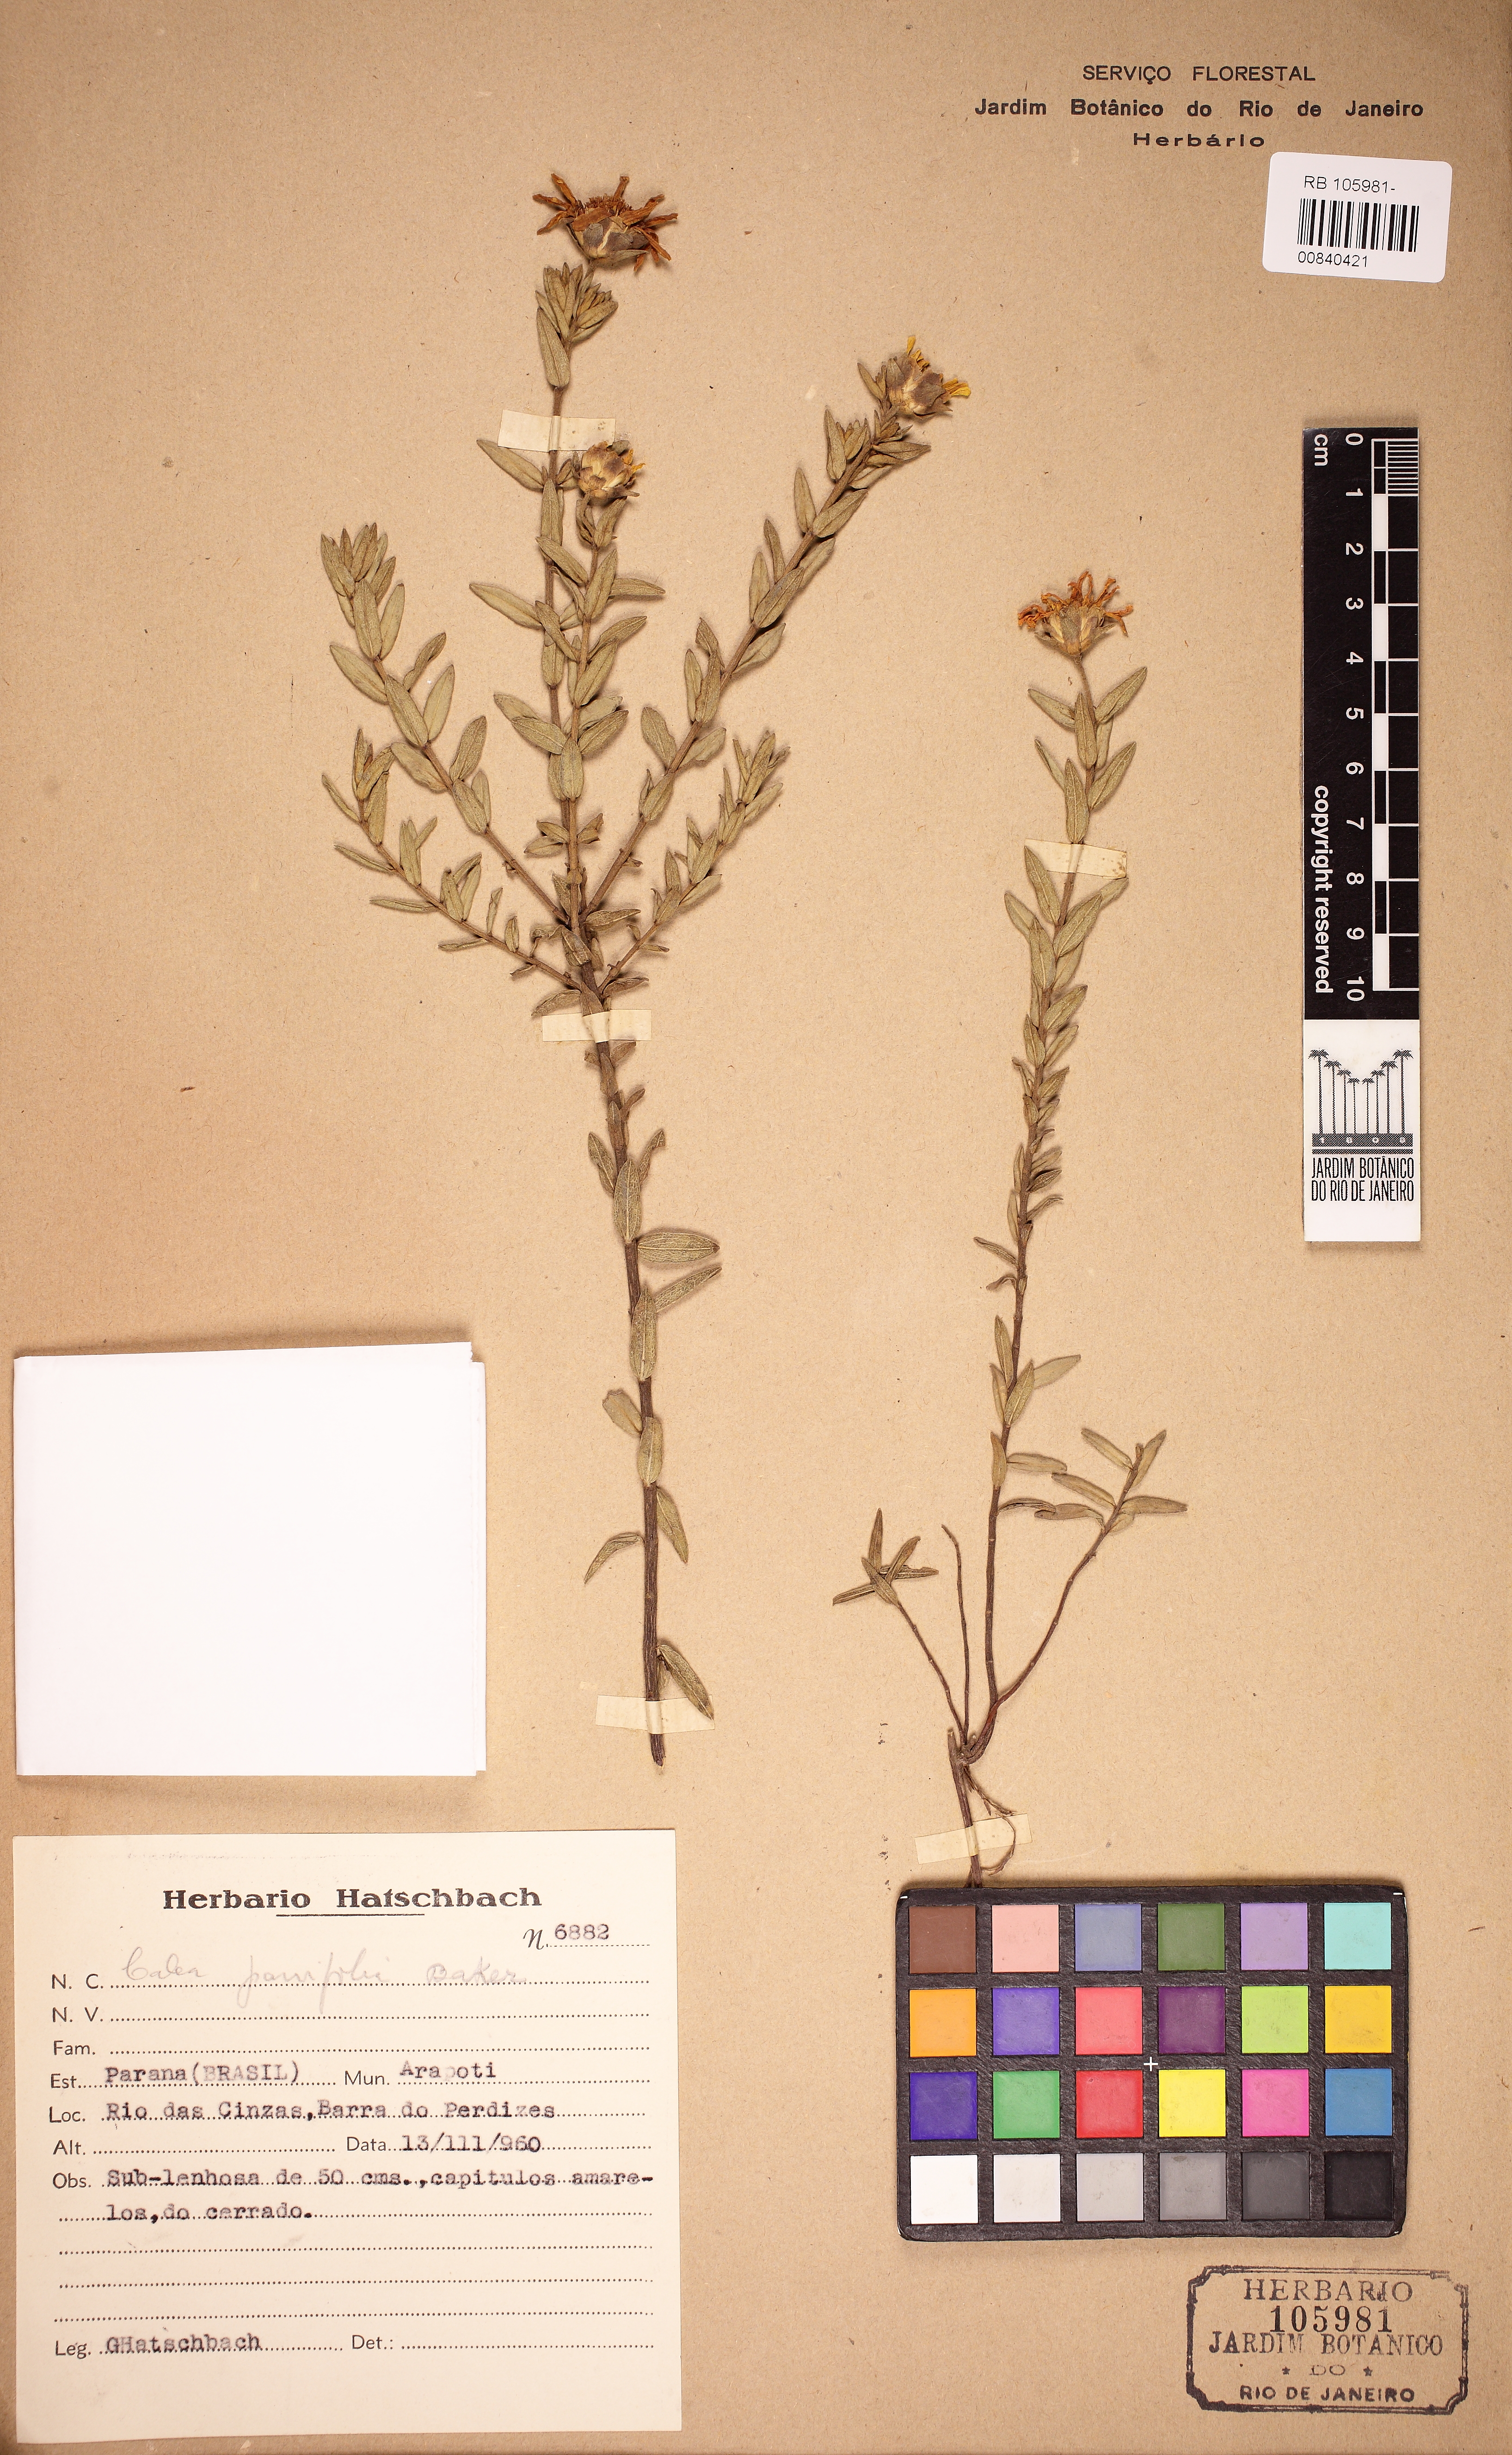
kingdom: Plantae
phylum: Tracheophyta
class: Magnoliopsida
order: Asterales
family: Asteraceae
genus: Calea
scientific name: Calea parvifolia
